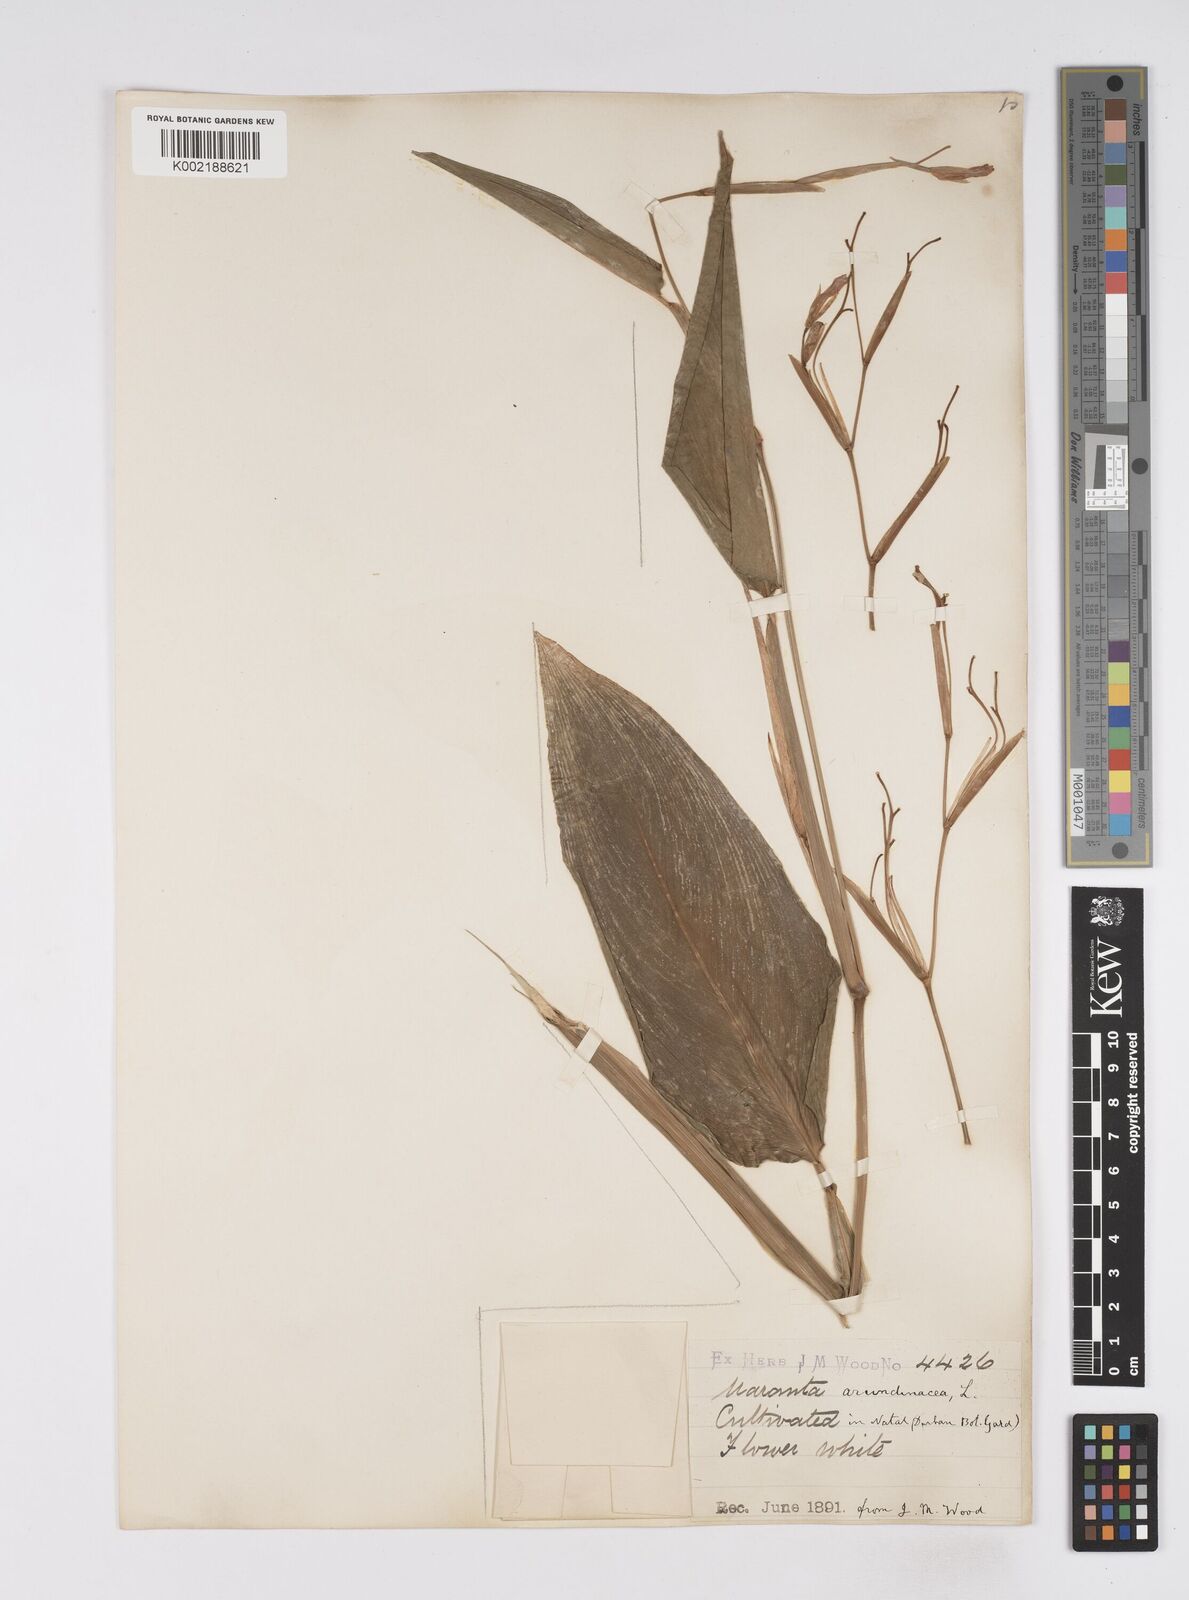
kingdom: Plantae
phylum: Tracheophyta
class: Liliopsida
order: Zingiberales
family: Marantaceae
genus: Maranta
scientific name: Maranta arundinacea
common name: Arrowroot
